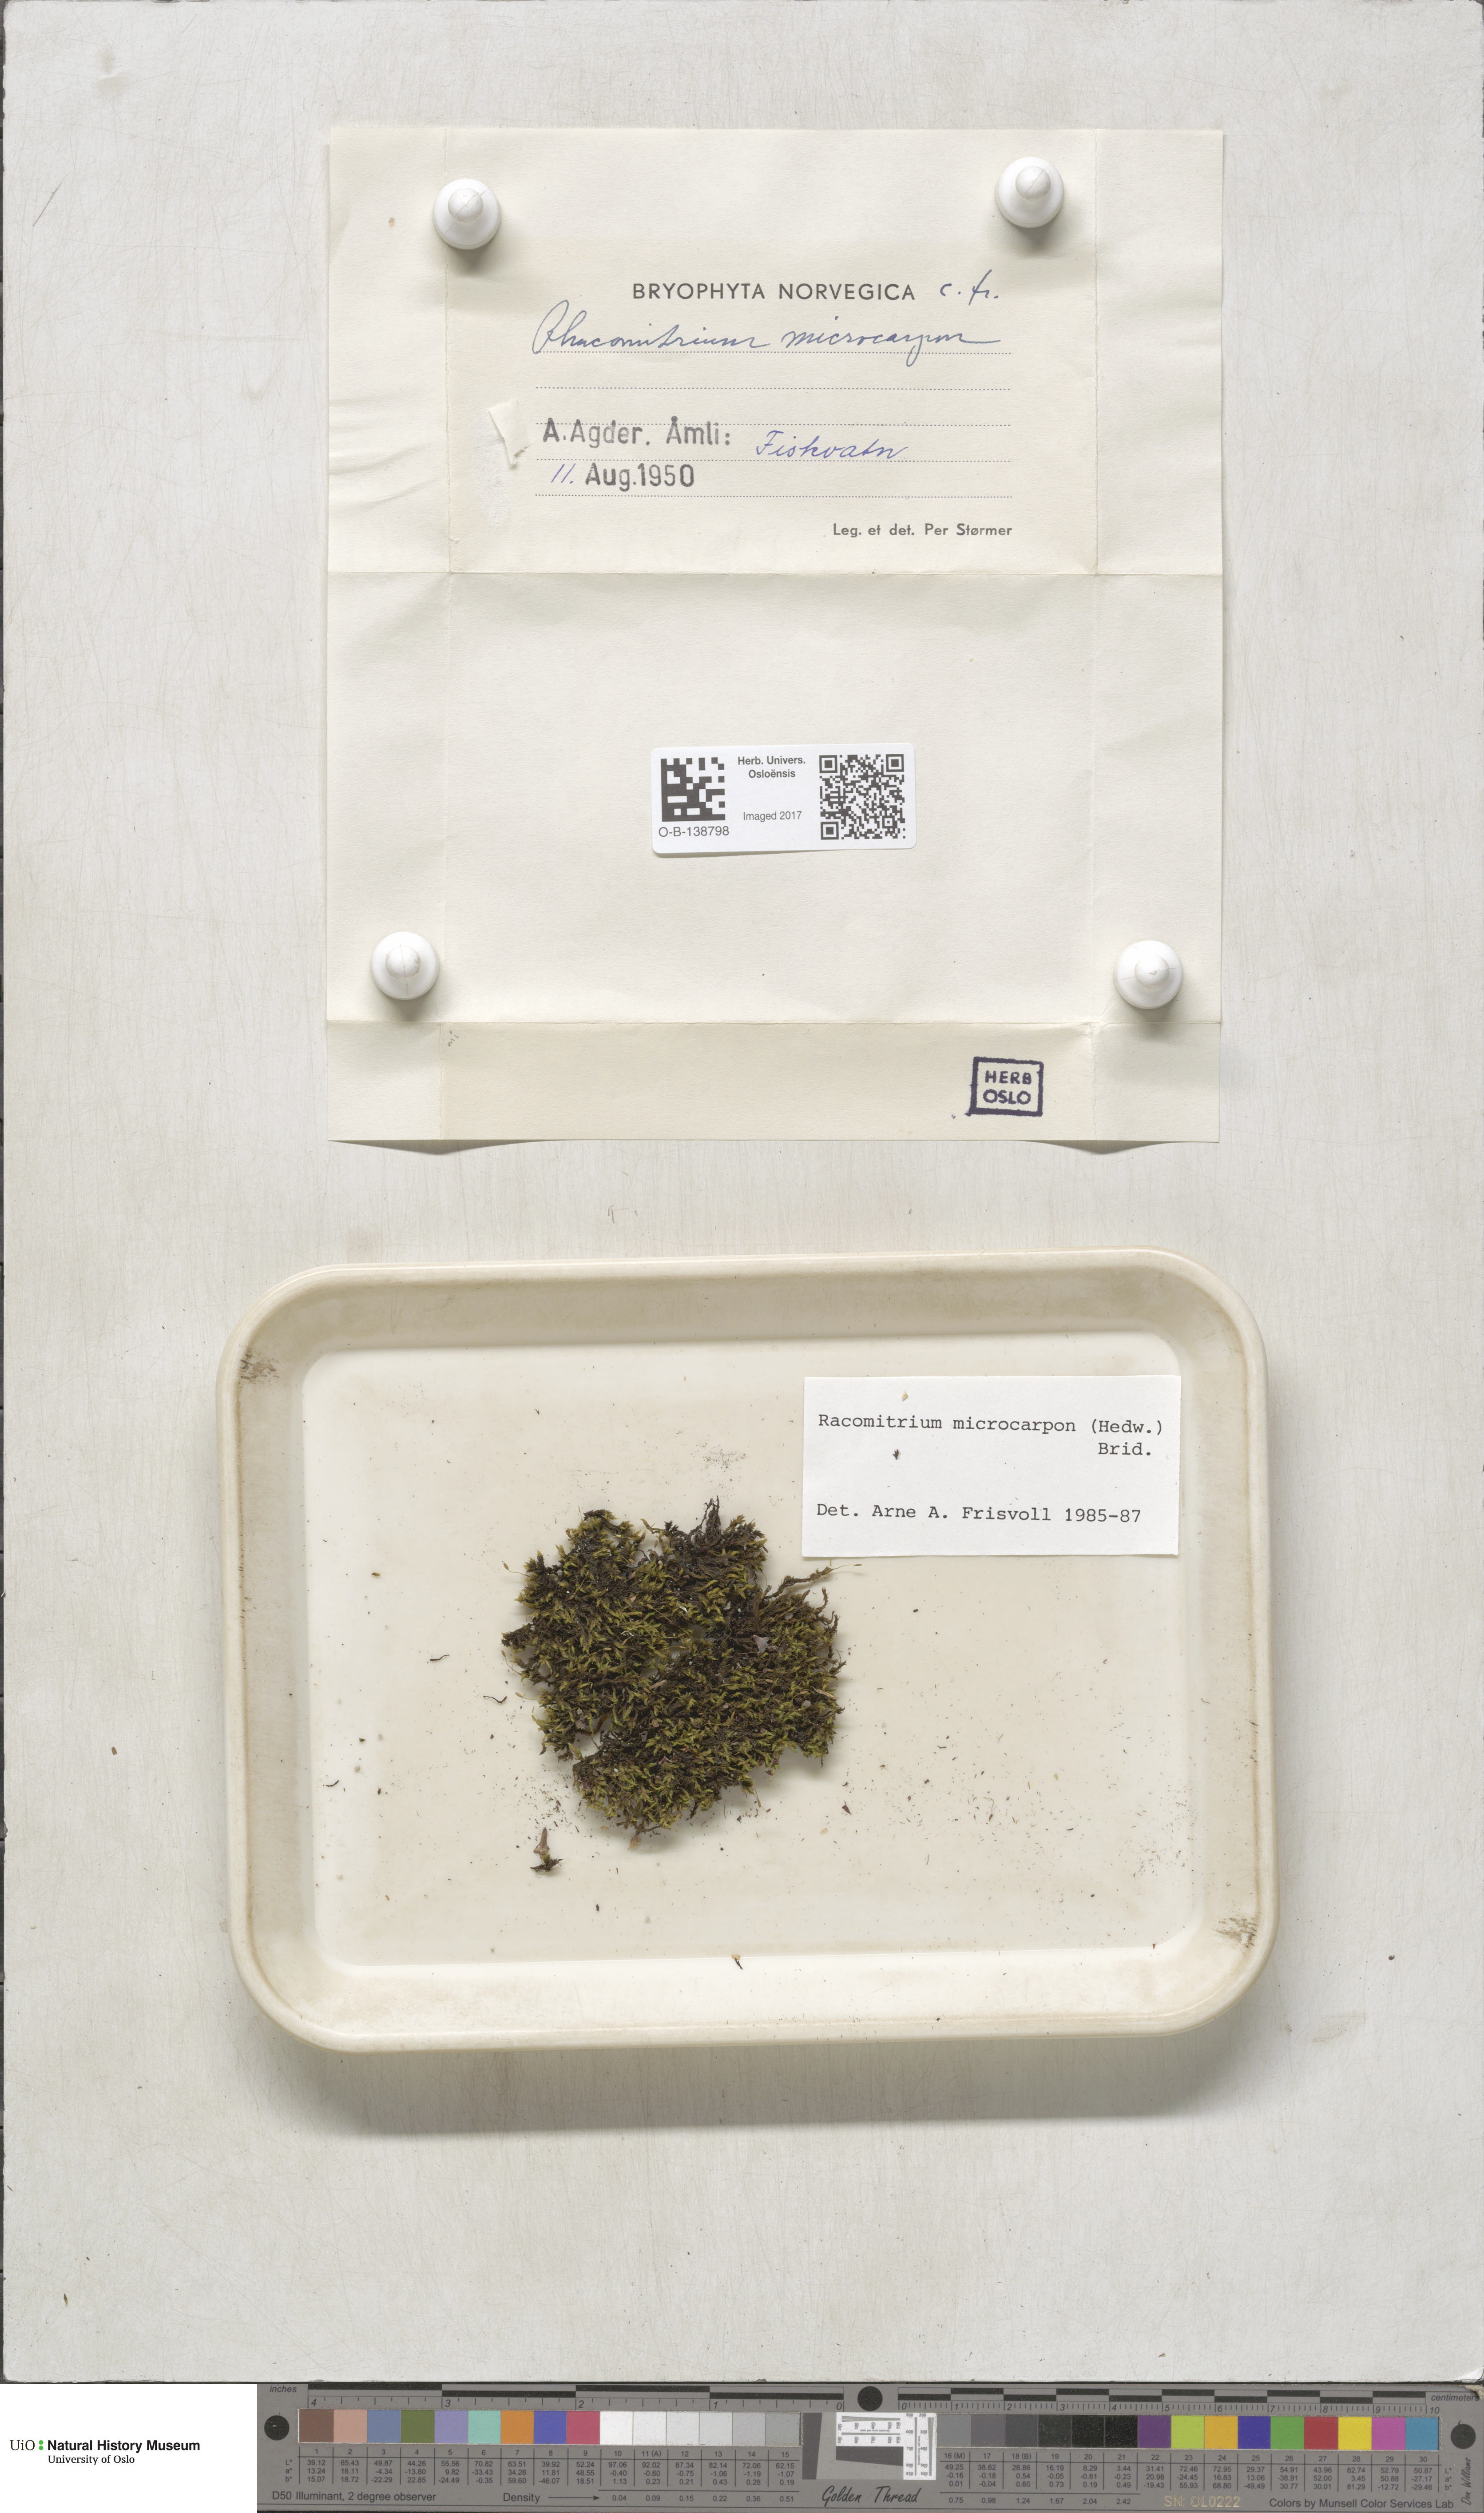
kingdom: Plantae
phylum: Bryophyta
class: Bryopsida
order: Grimmiales
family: Grimmiaceae
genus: Bucklandiella
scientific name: Bucklandiella microcarpos
